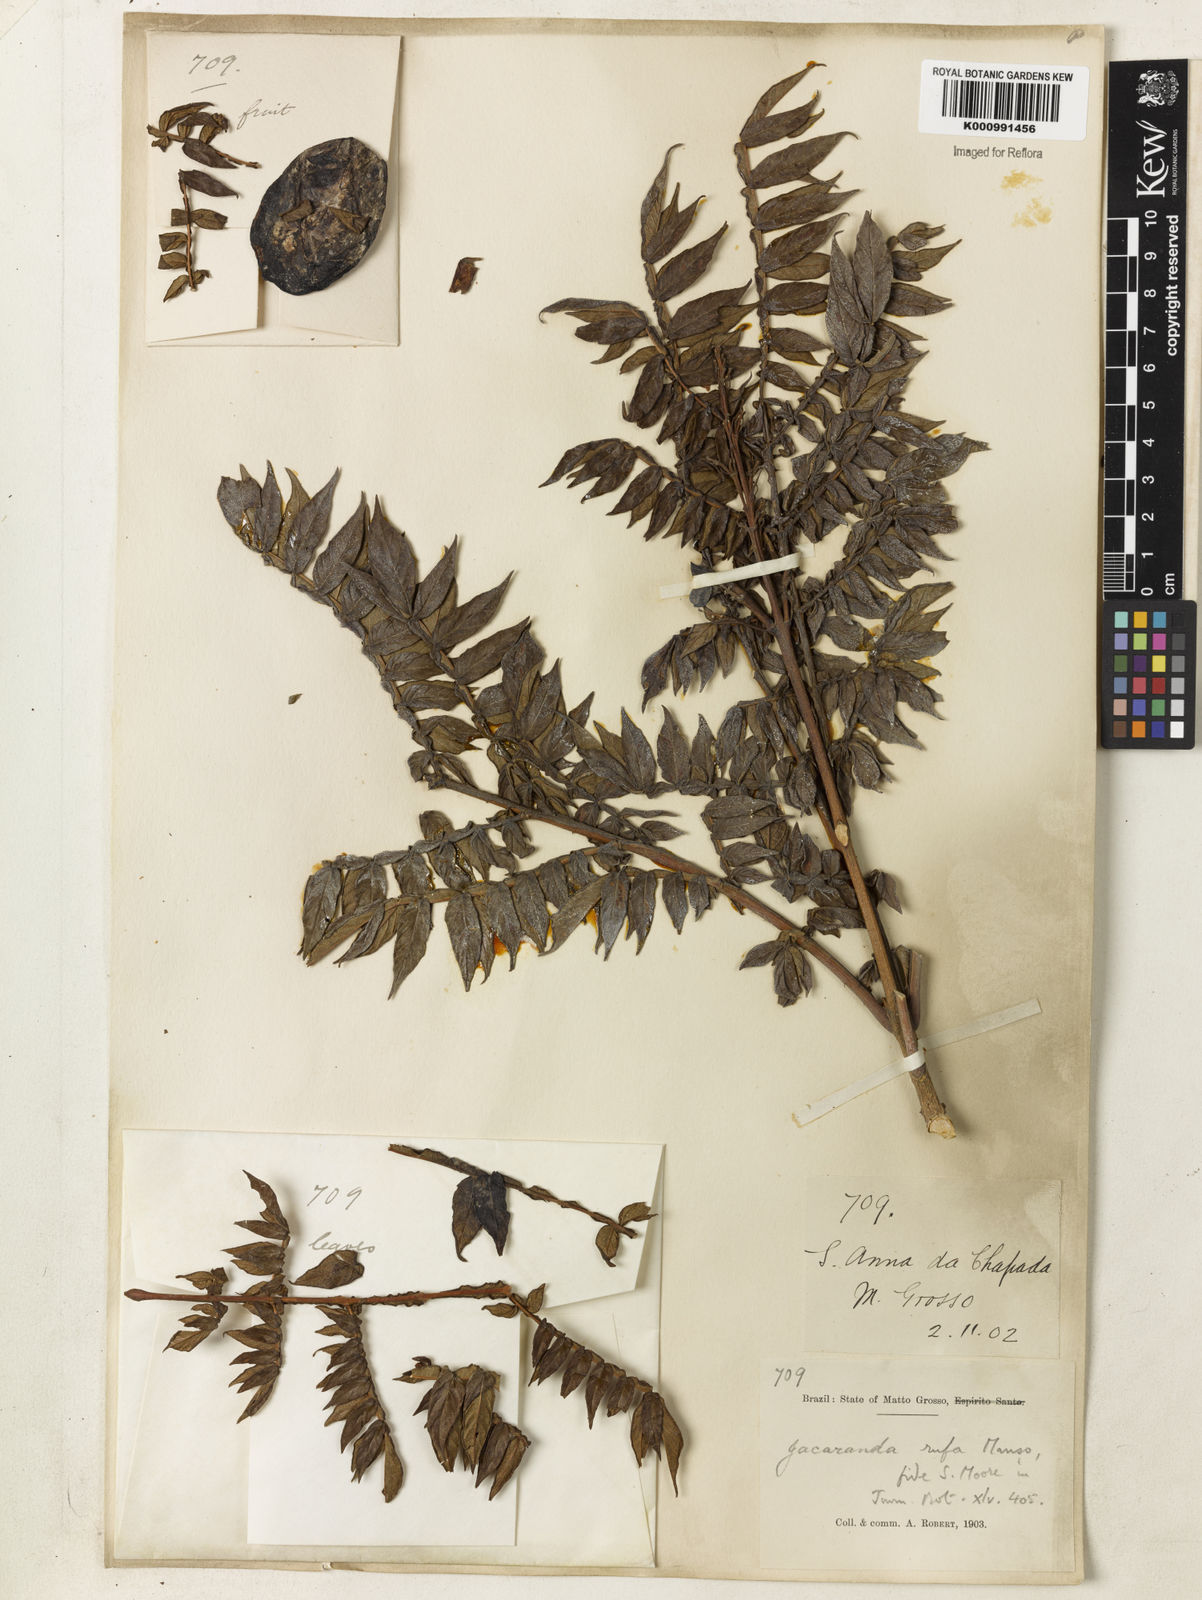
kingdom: Plantae
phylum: Tracheophyta
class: Magnoliopsida
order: Lamiales
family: Bignoniaceae
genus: Jacaranda
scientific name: Jacaranda rufa
